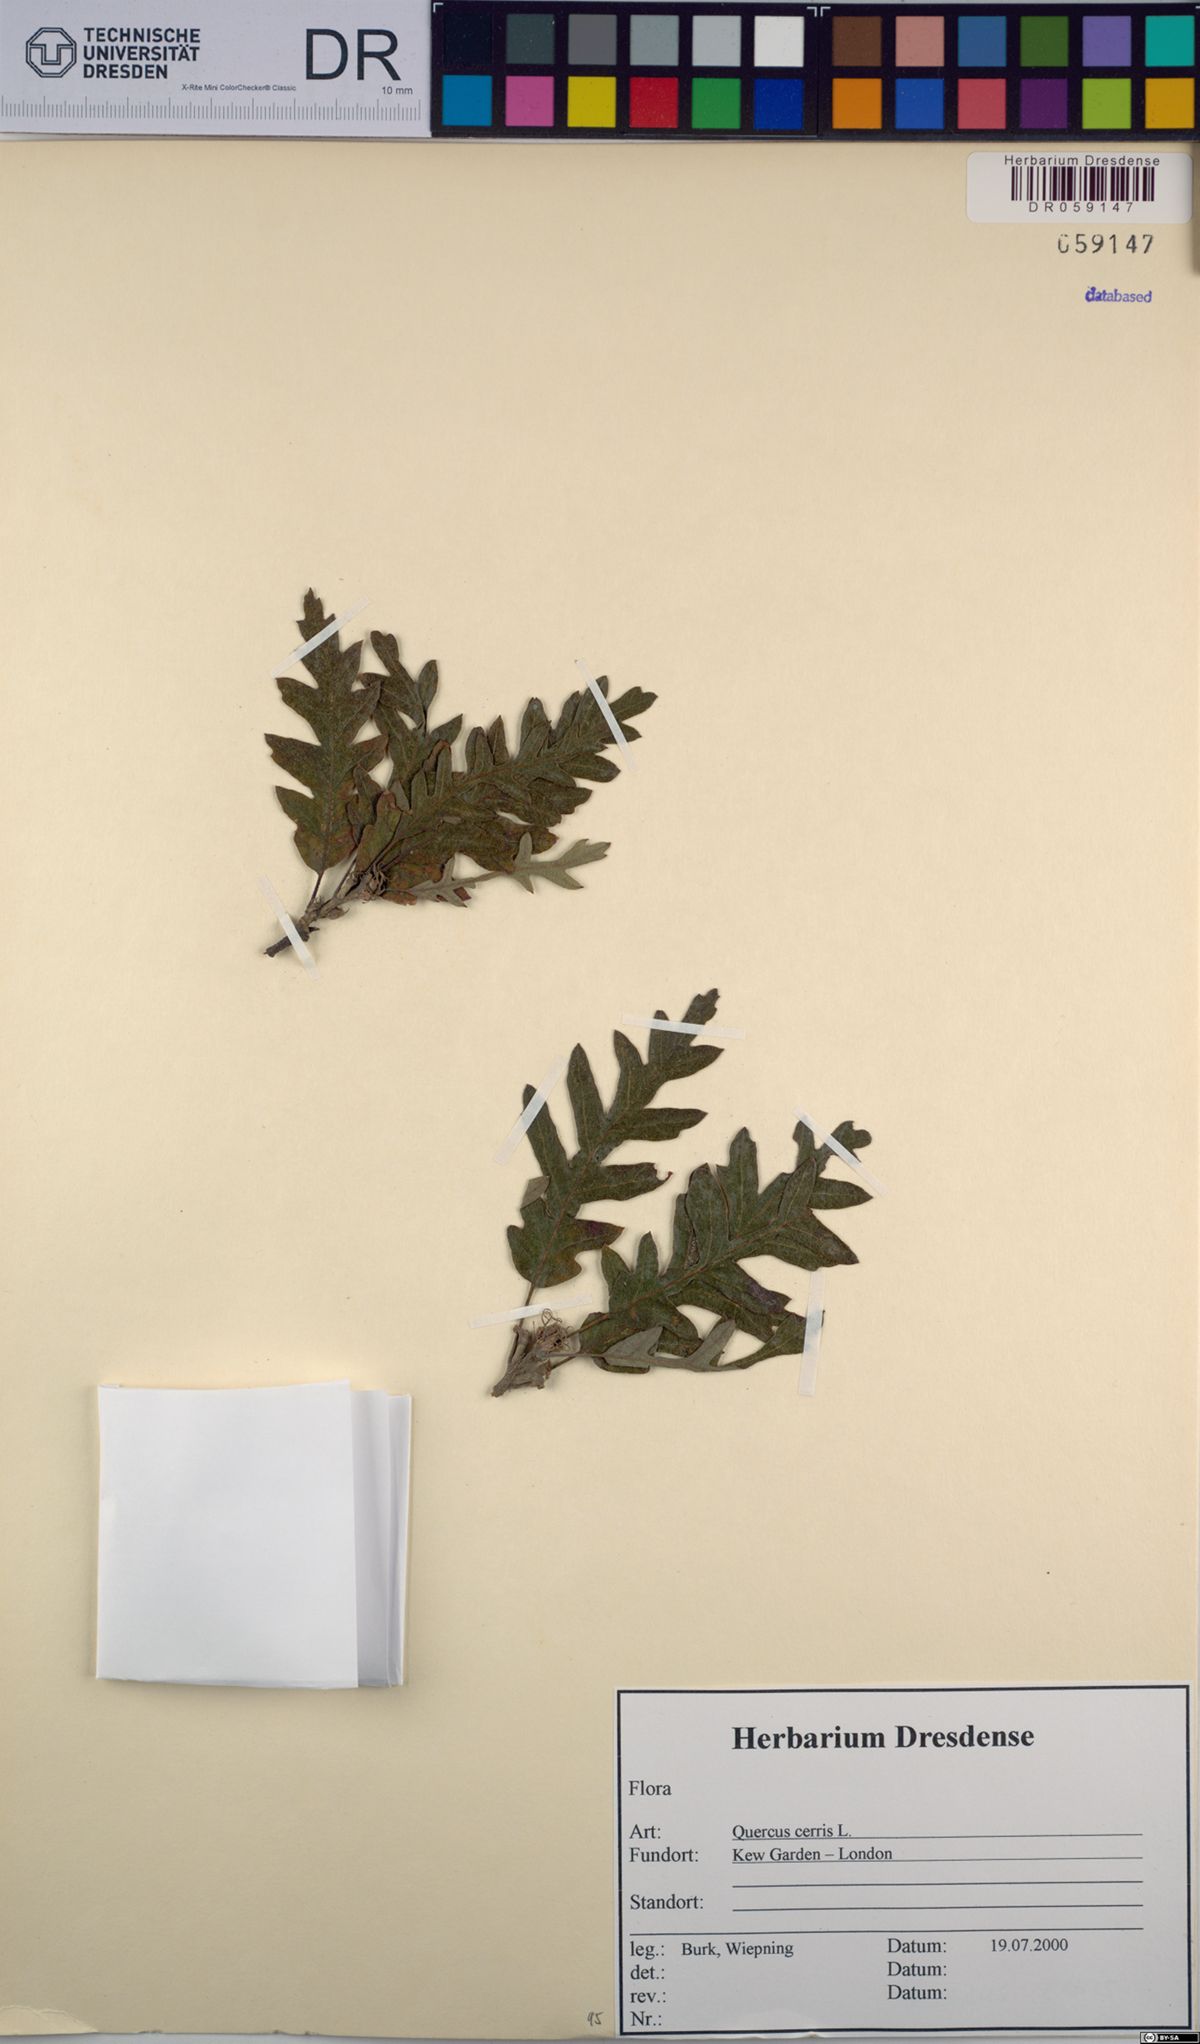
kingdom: Plantae
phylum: Tracheophyta
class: Magnoliopsida
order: Fagales
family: Fagaceae
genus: Quercus
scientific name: Quercus cerris
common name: Turkey oak
